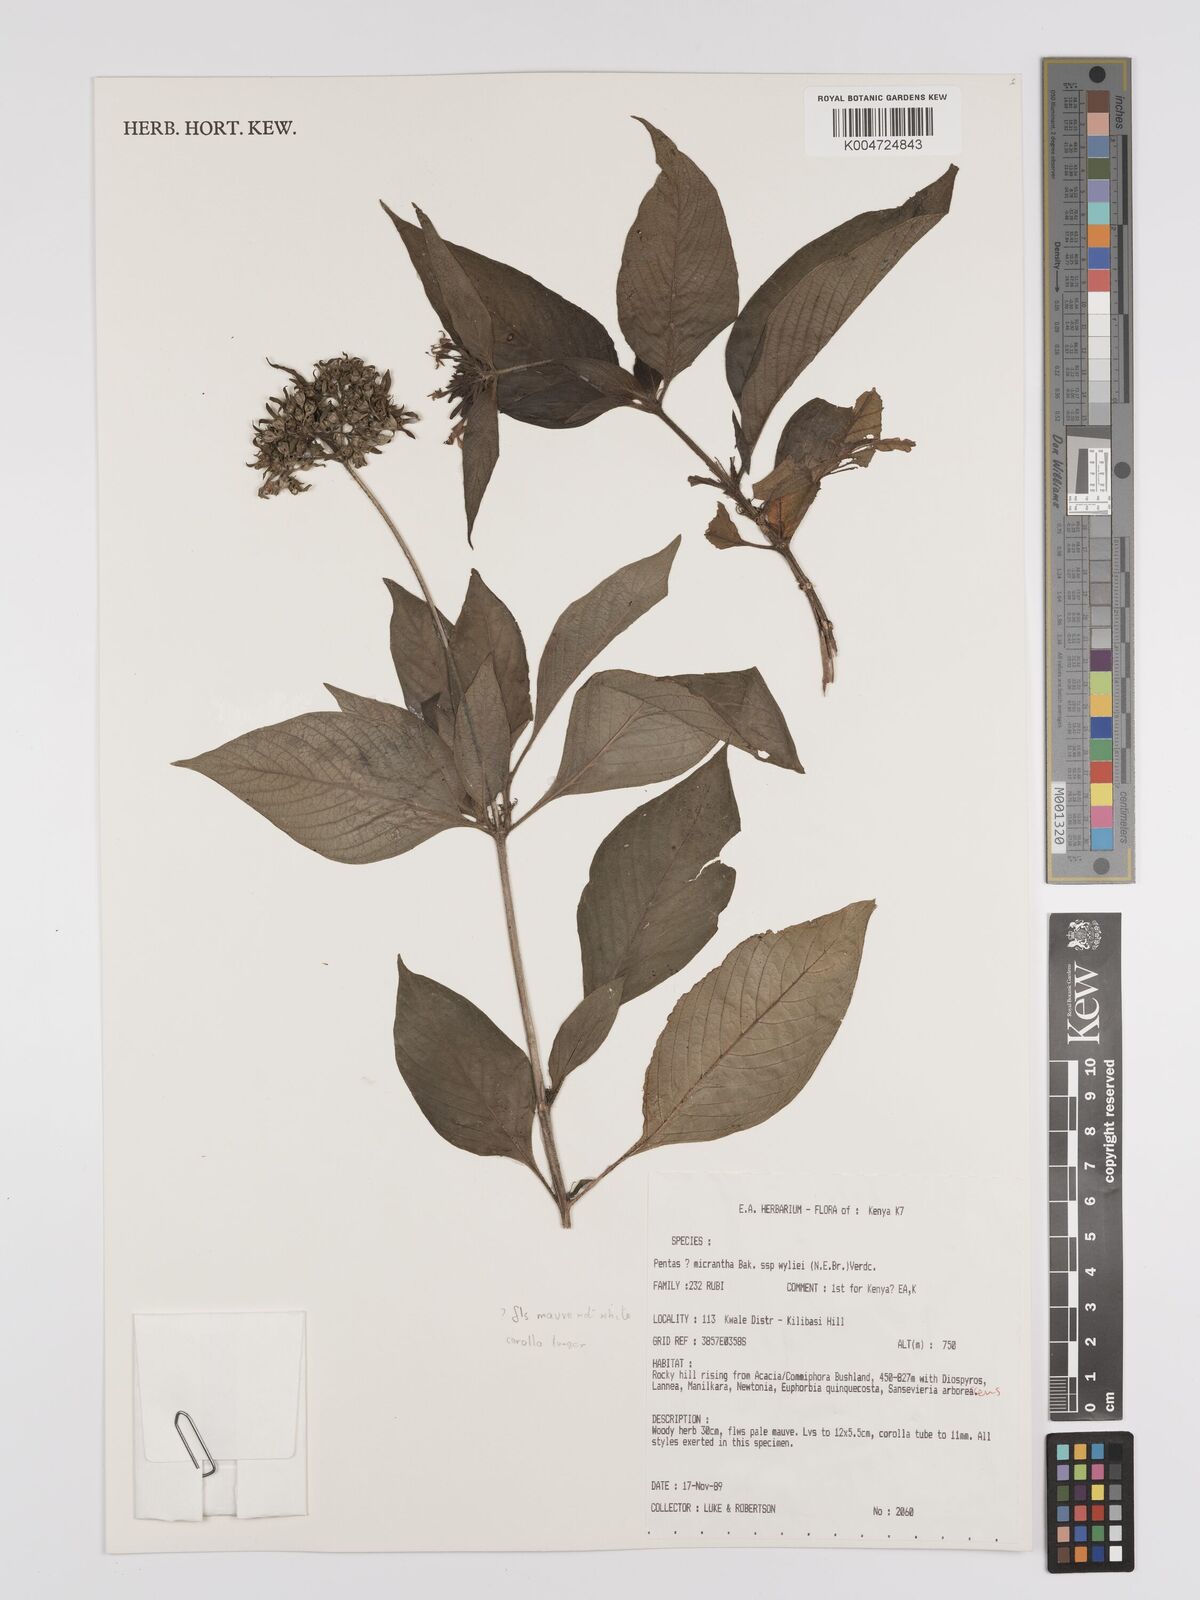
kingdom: Plantae
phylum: Tracheophyta
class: Magnoliopsida
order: Gentianales
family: Rubiaceae
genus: Pentas
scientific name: Pentas micrantha
